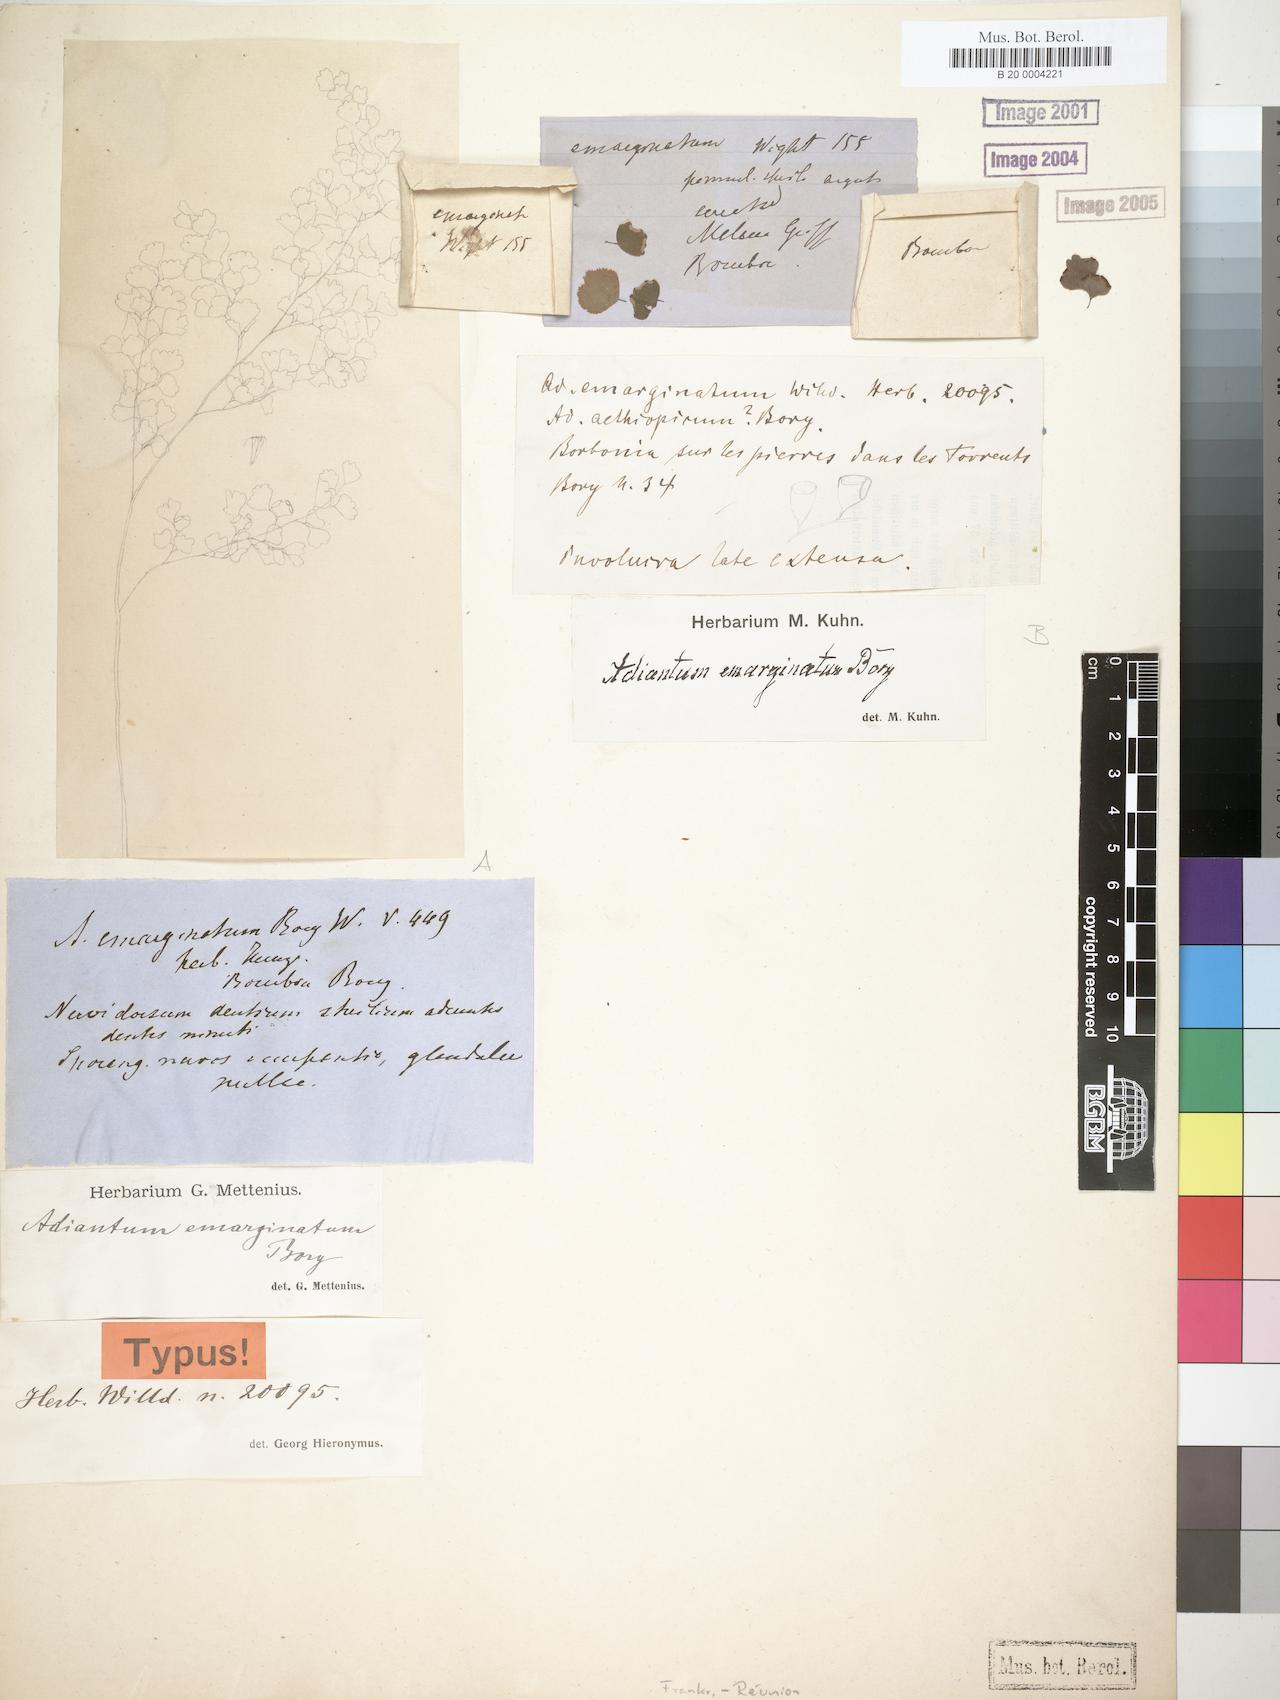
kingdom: Plantae
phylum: Tracheophyta
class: Polypodiopsida
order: Polypodiales
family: Pteridaceae
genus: Adiantum
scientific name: Adiantum capillus-veneris
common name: Maidenhair fern
